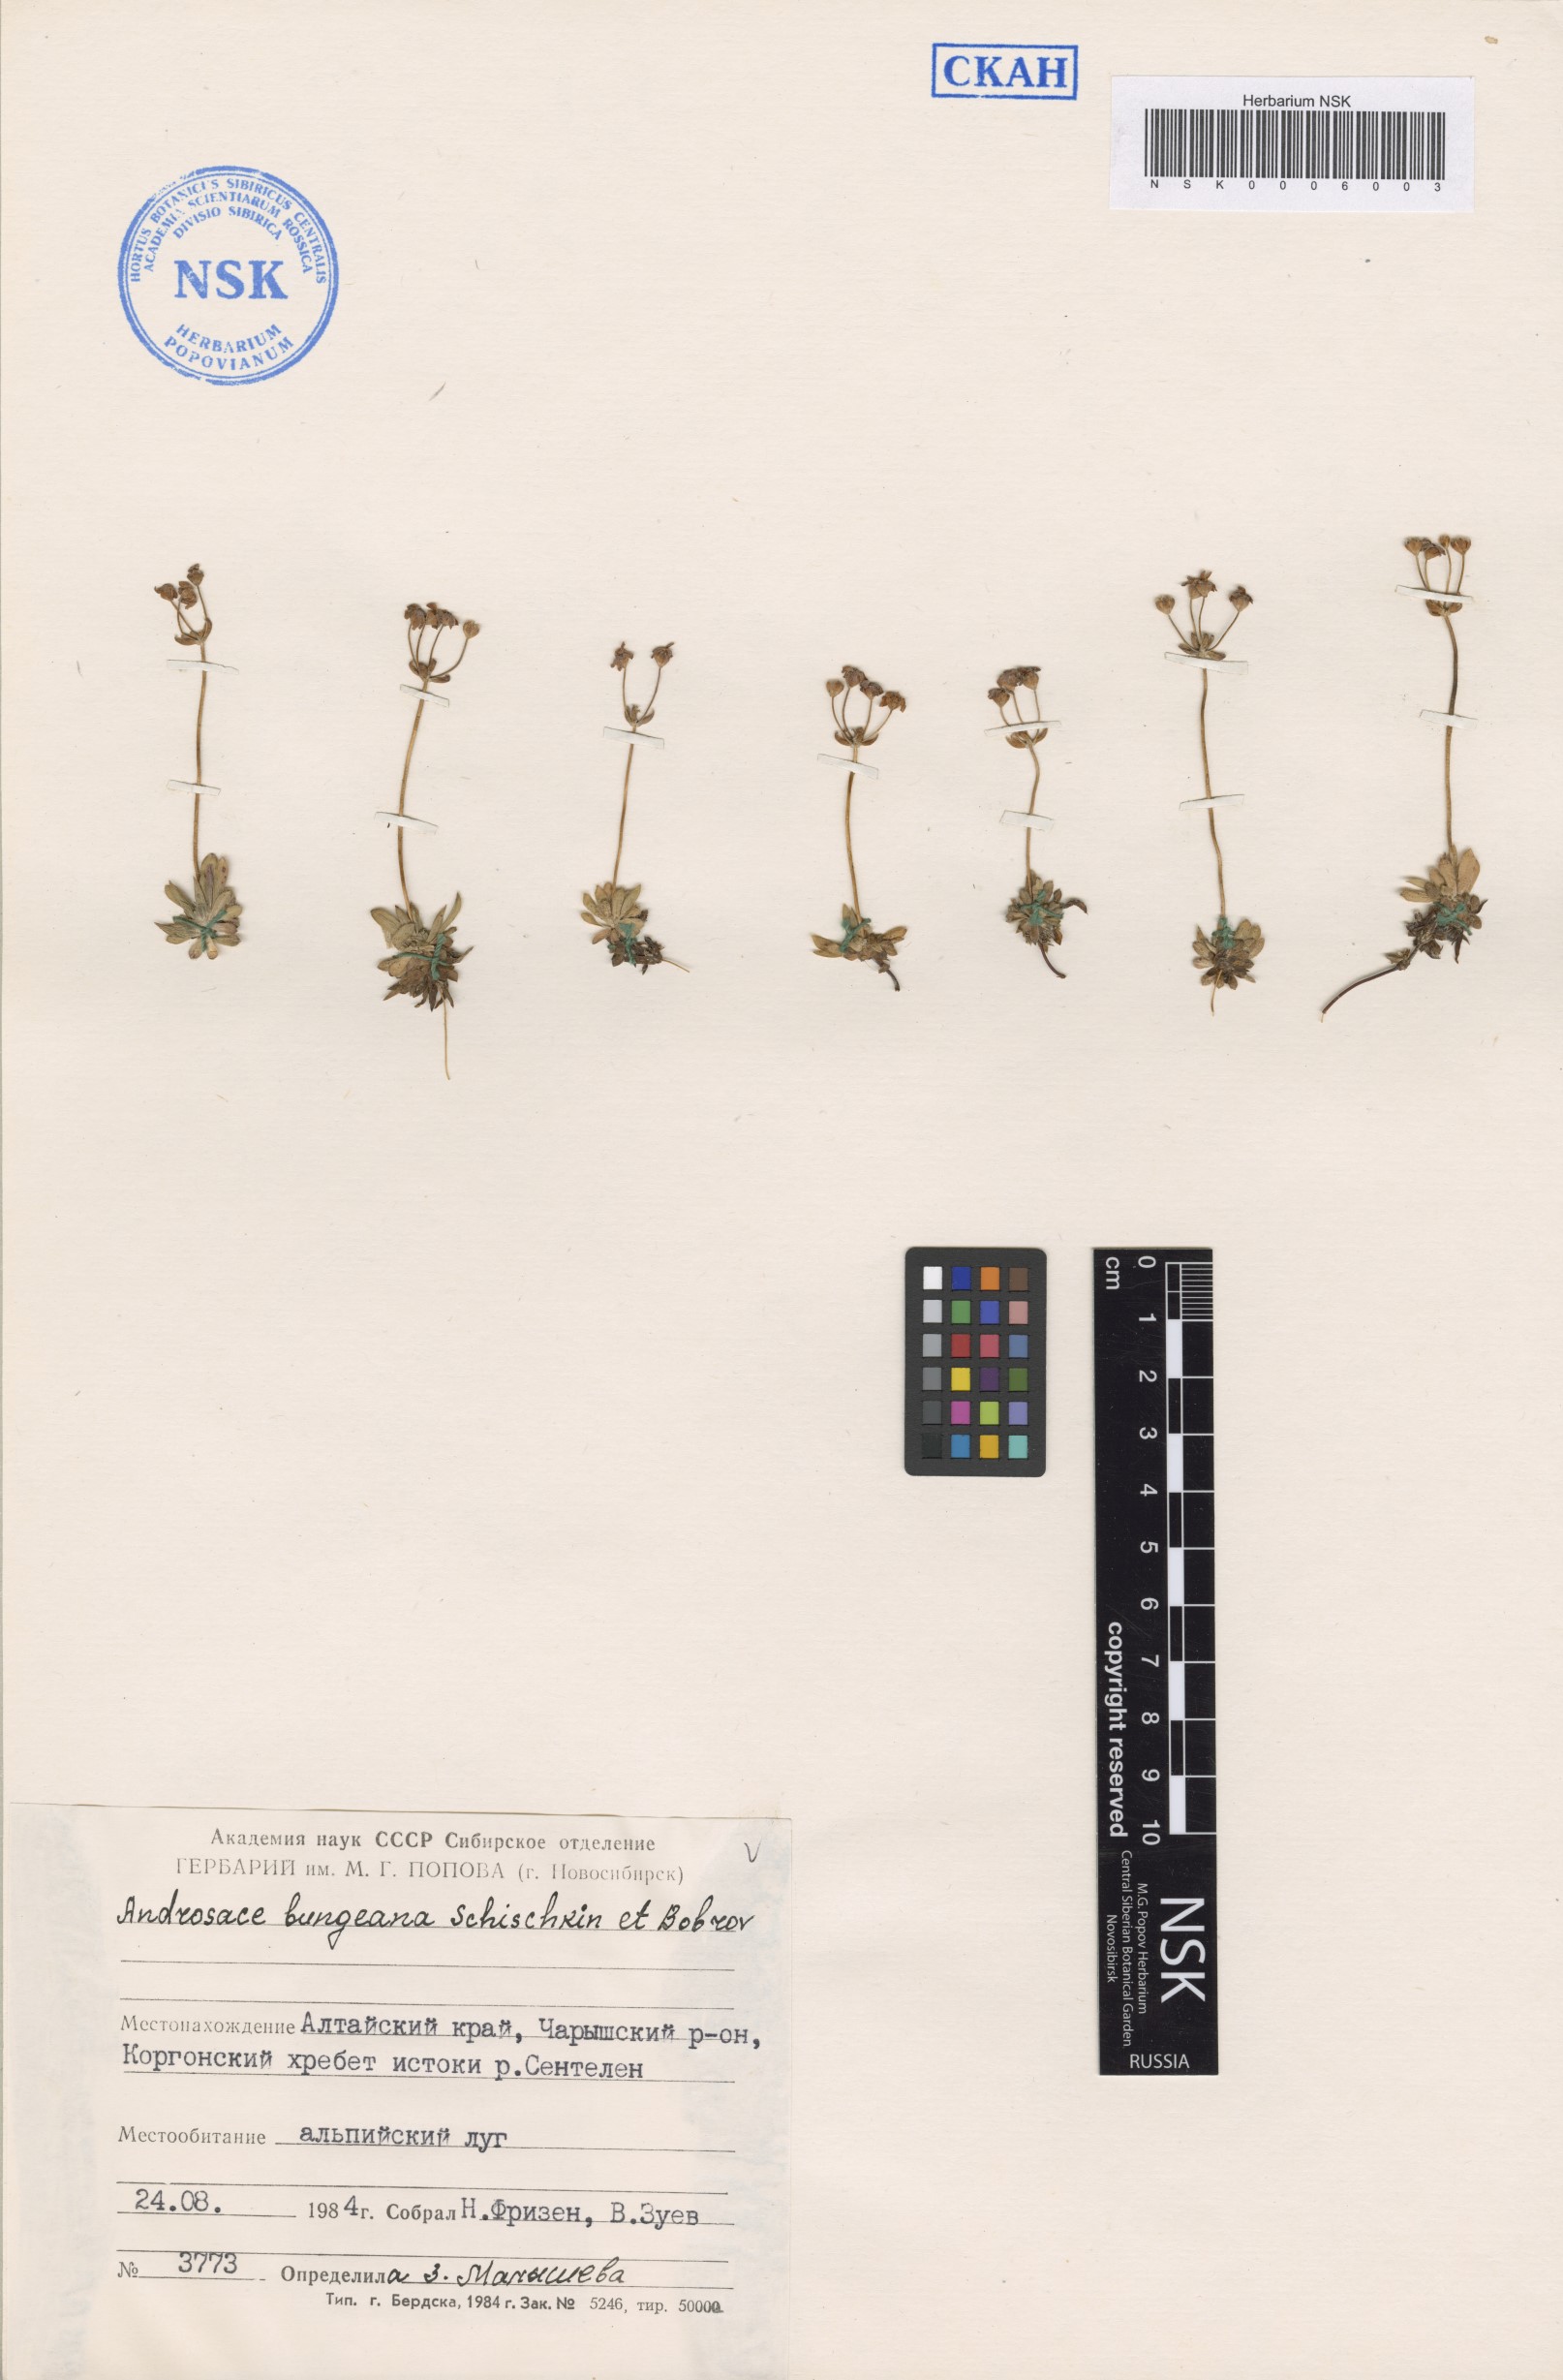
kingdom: Plantae
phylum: Tracheophyta
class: Magnoliopsida
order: Ericales
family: Primulaceae
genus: Androsace
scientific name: Androsace bungeana
